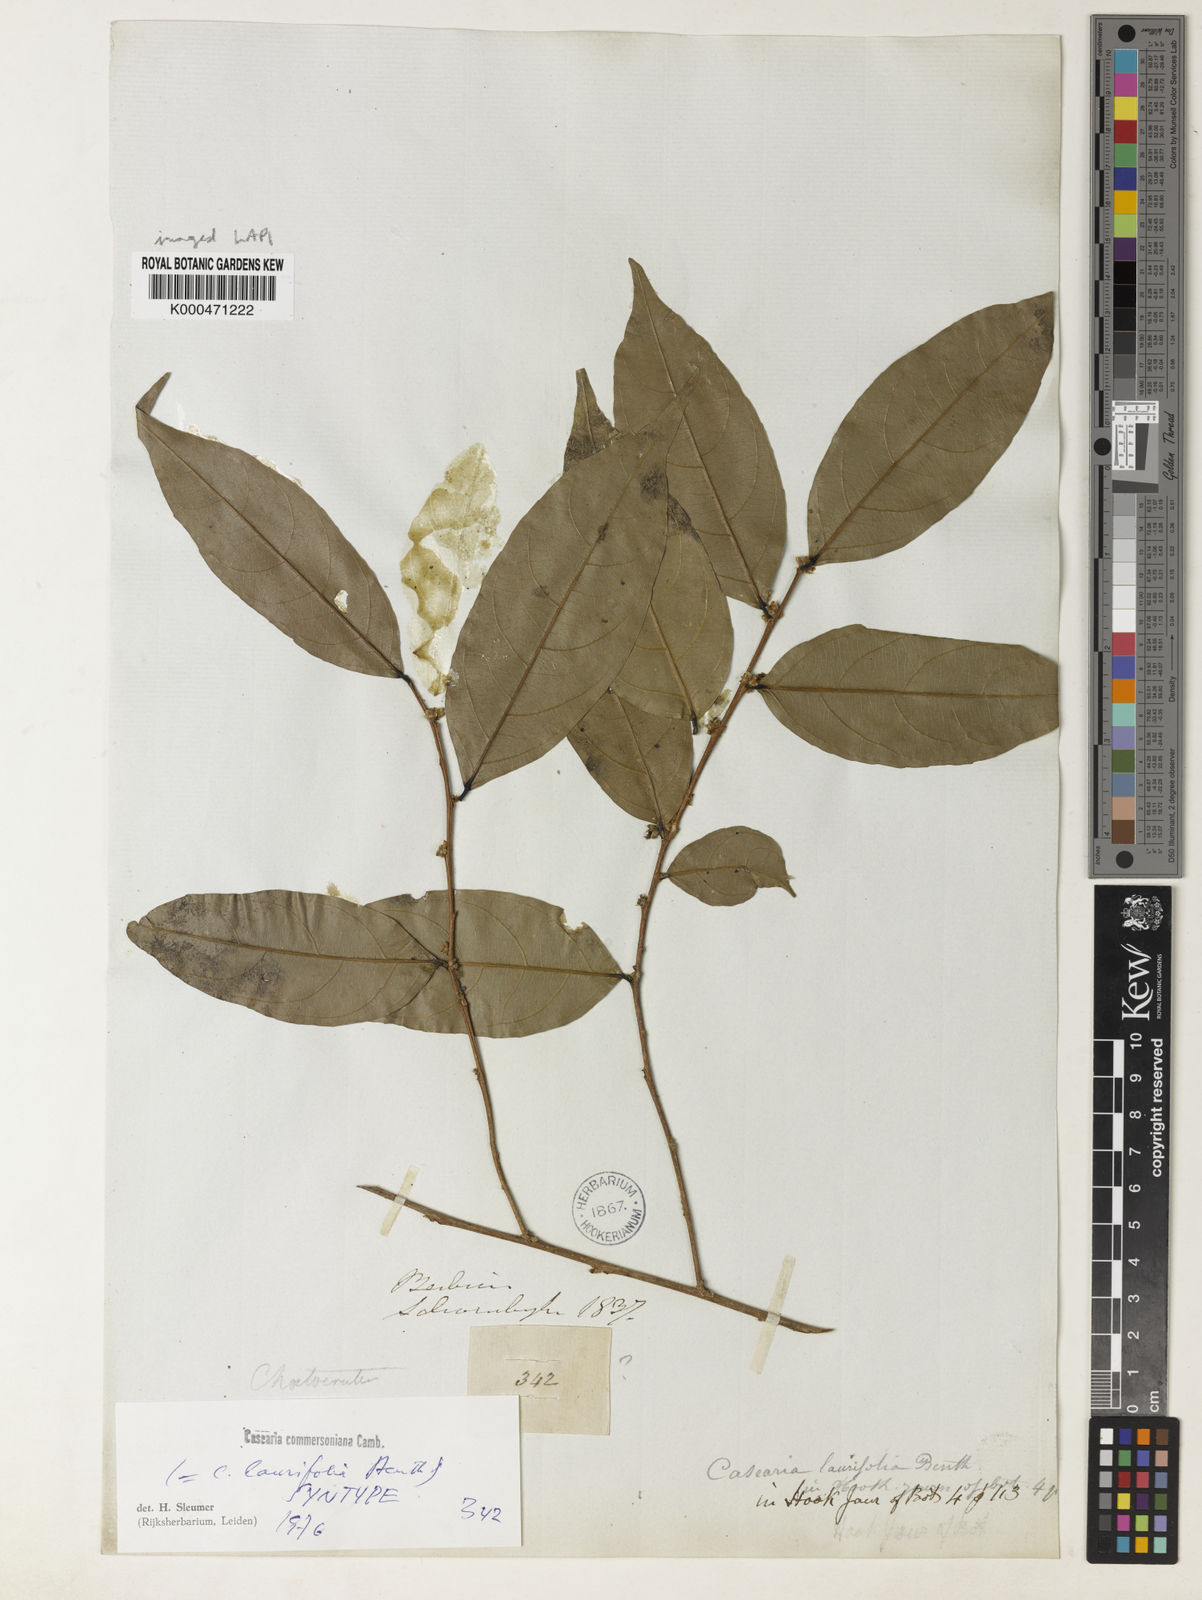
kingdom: Plantae
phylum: Tracheophyta
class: Magnoliopsida
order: Malpighiales
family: Salicaceae
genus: Piparea
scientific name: Piparea dentata
